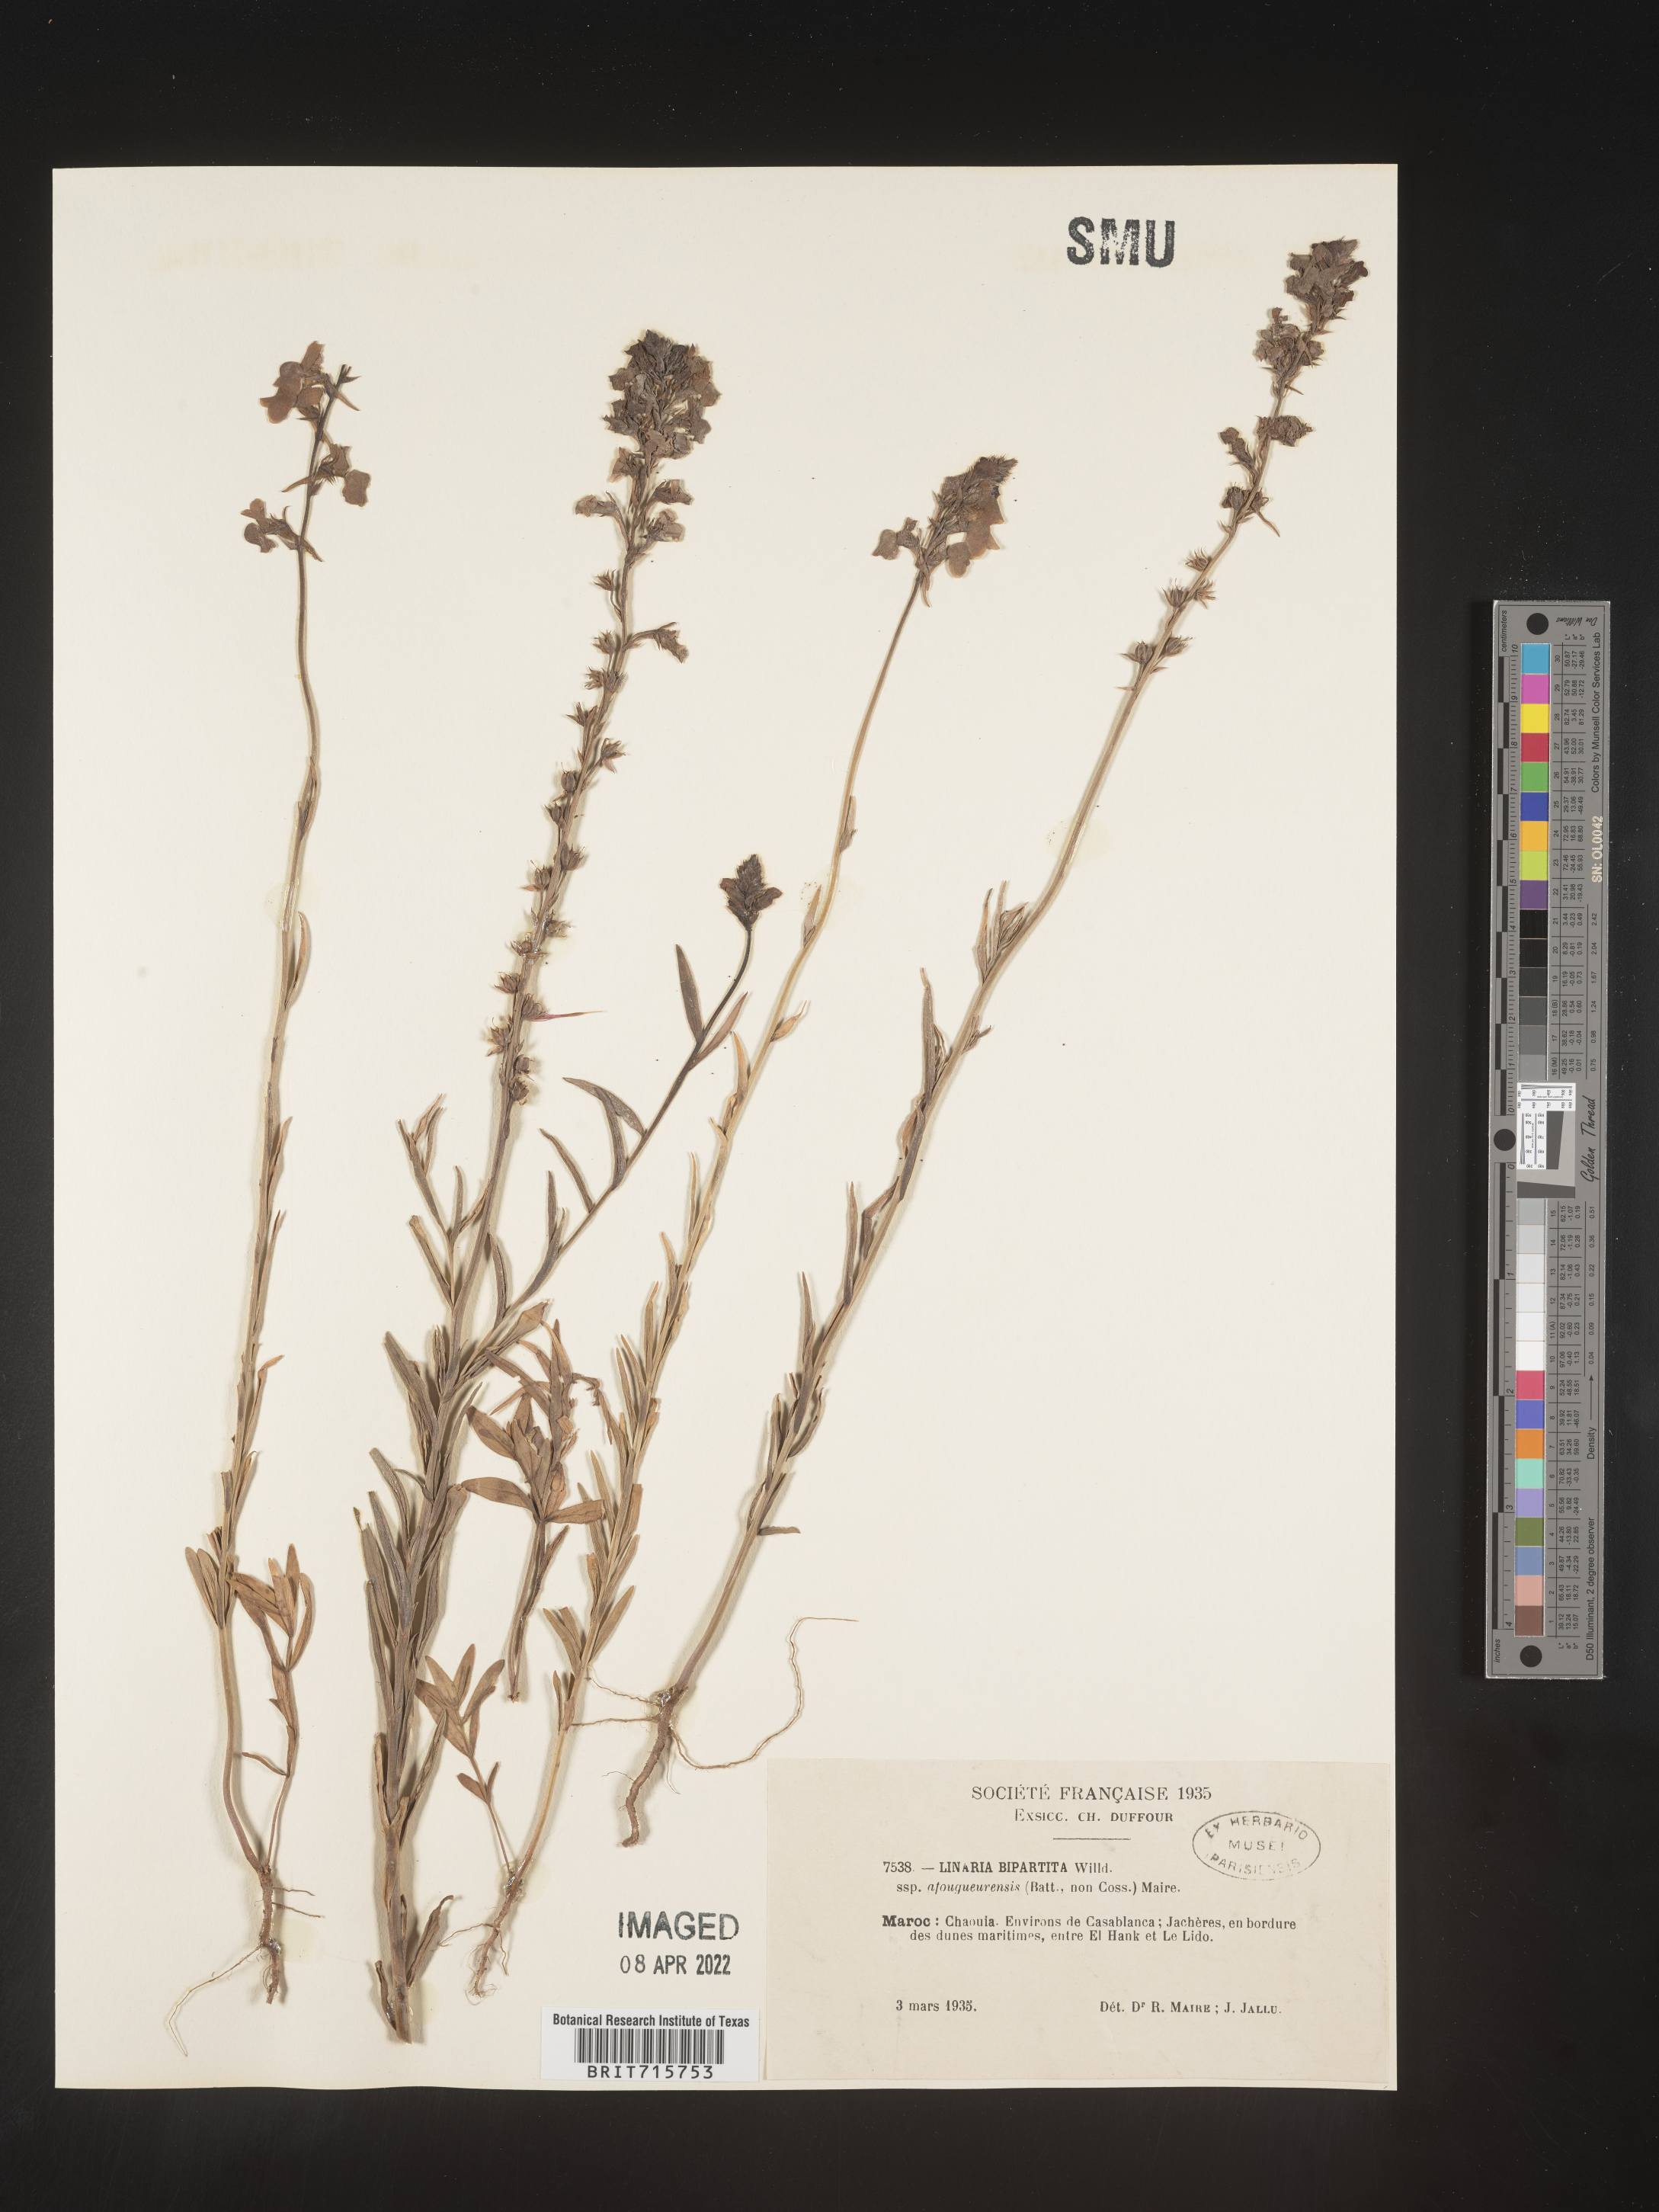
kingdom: Plantae
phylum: Tracheophyta
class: Magnoliopsida
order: Lamiales
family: Plantaginaceae
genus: Linaria
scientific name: Linaria
